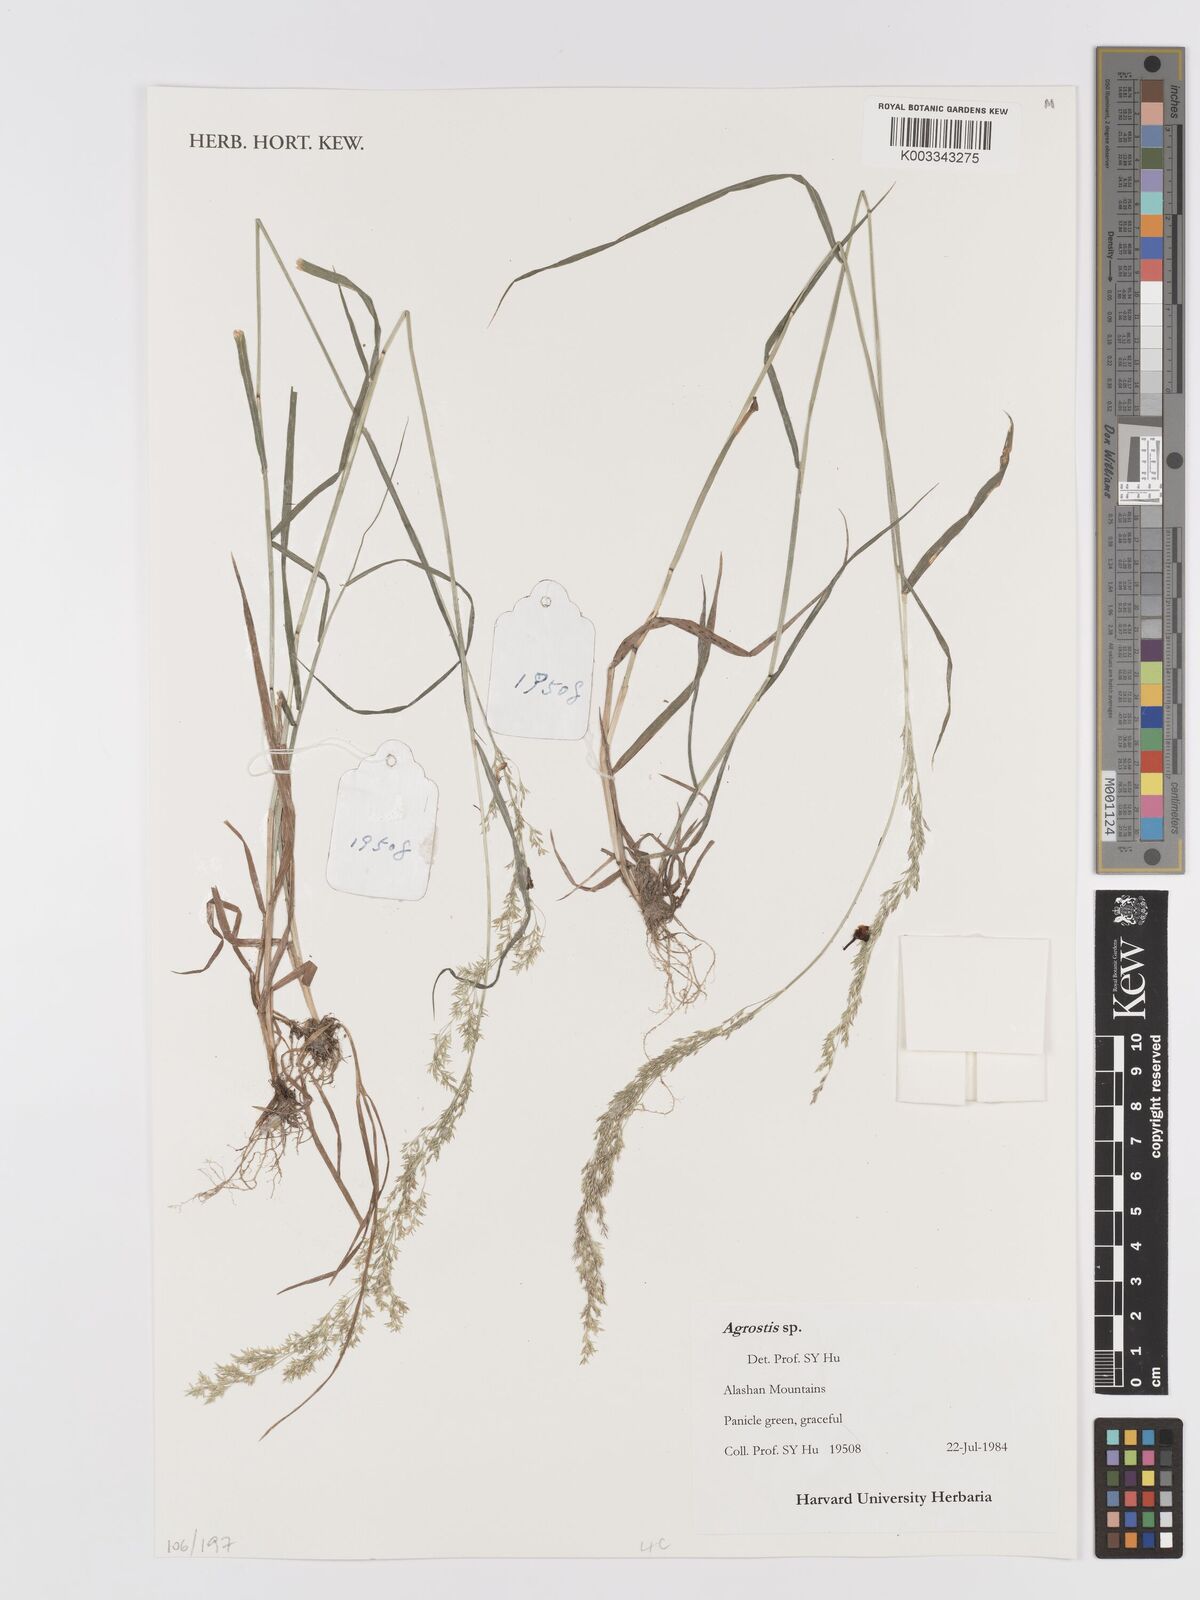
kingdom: Plantae
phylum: Tracheophyta
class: Liliopsida
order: Poales
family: Poaceae
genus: Agrostis
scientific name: Agrostis
